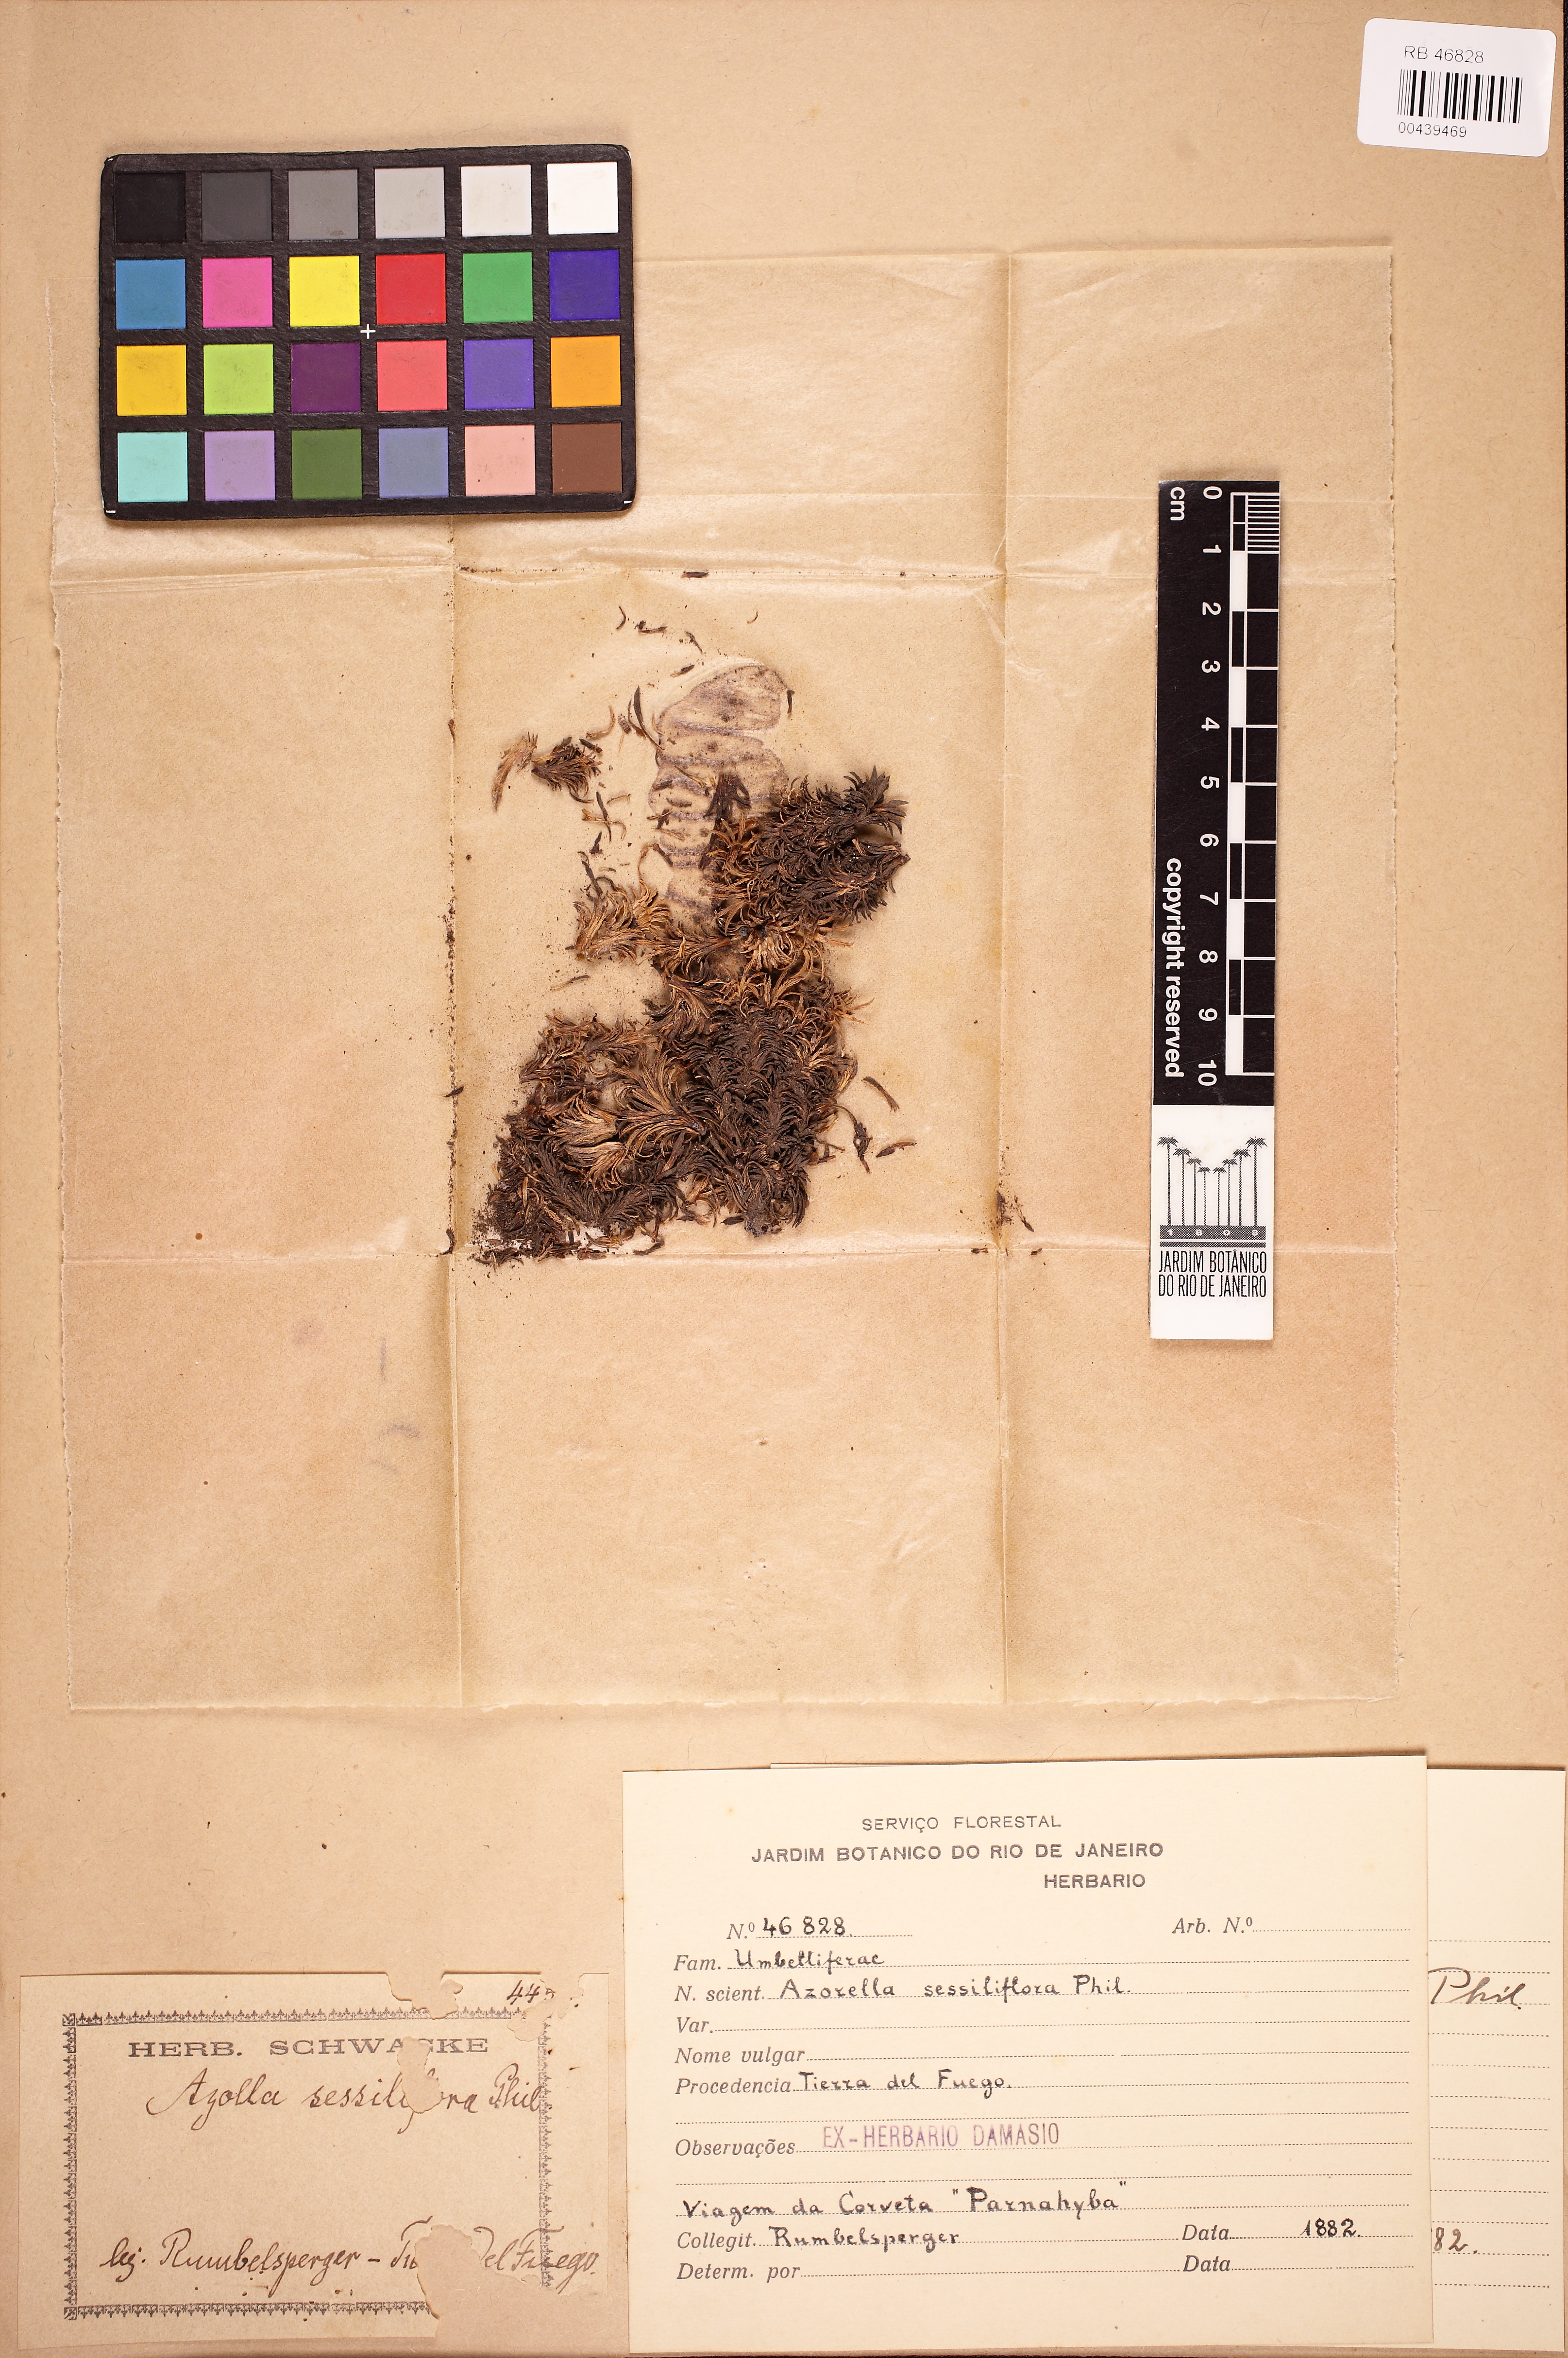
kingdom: Plantae
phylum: Tracheophyta
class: Magnoliopsida
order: Apiales
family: Apiaceae
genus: Azorella
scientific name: Azorella monantha
